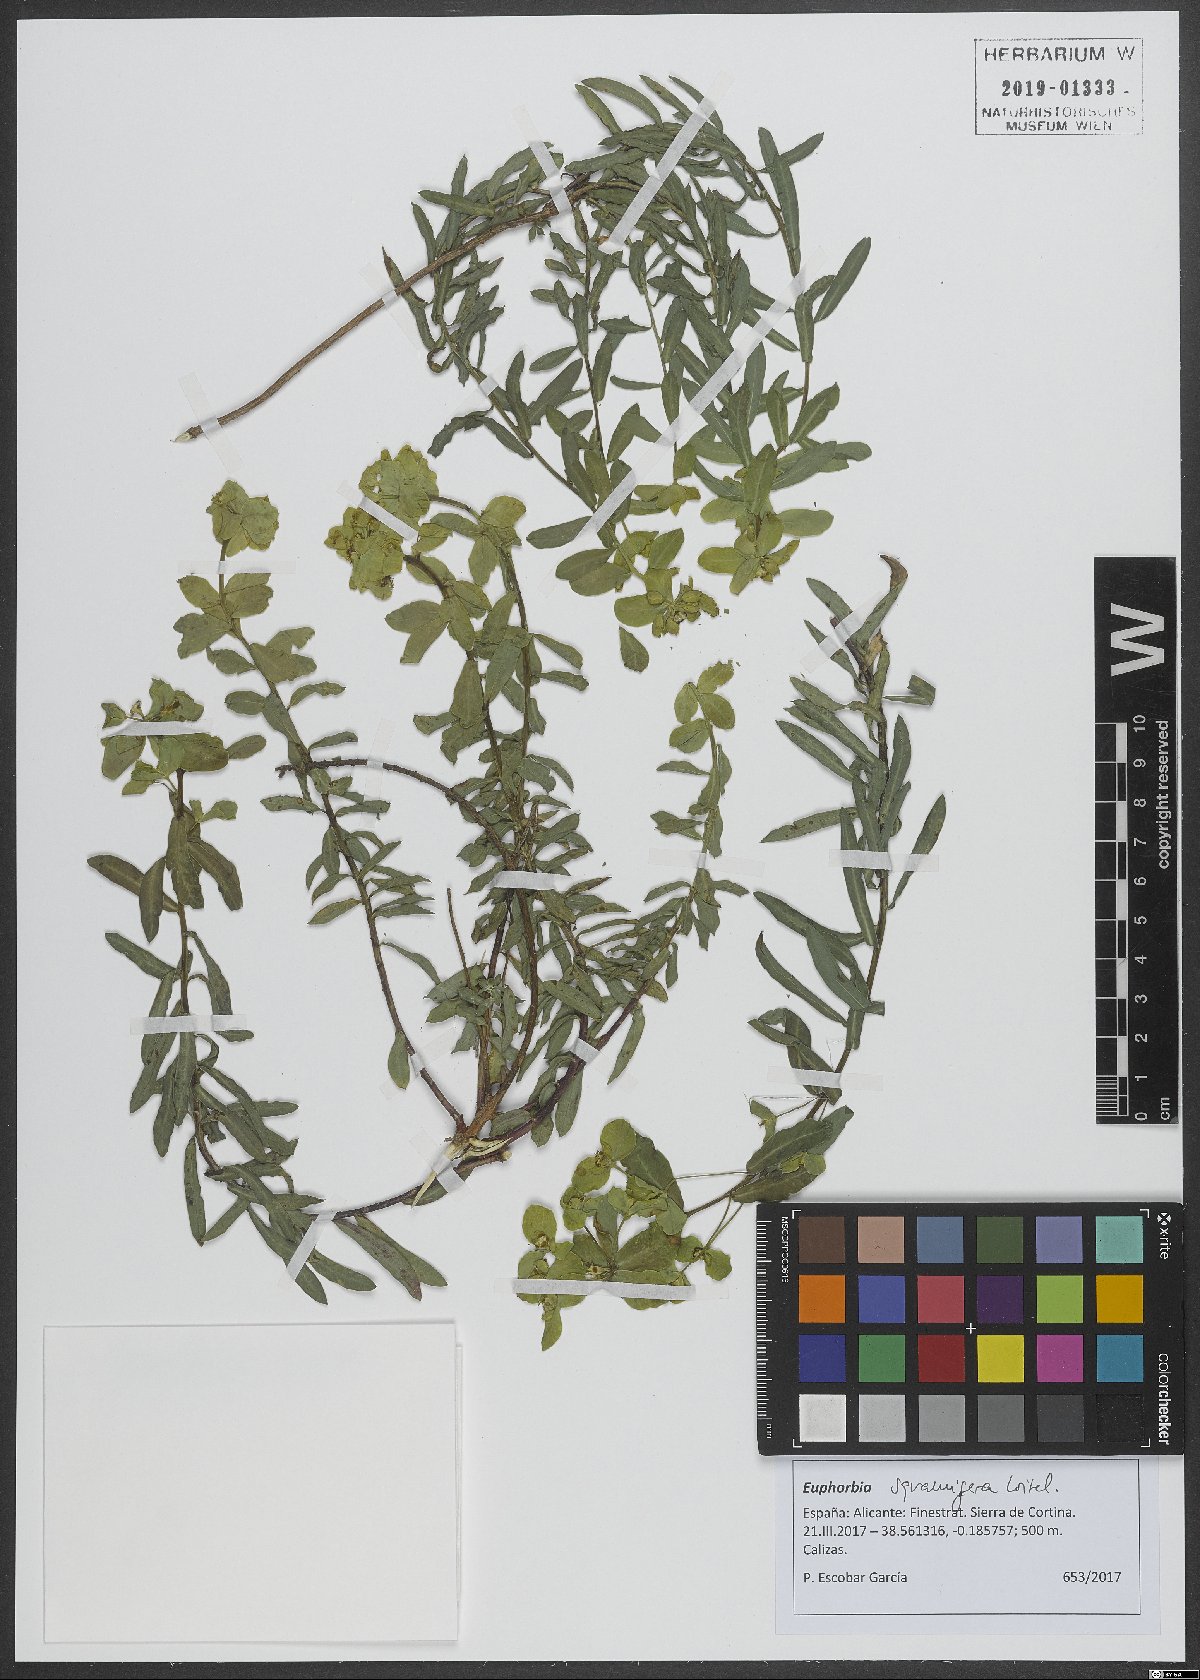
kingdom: Plantae
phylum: Tracheophyta
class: Magnoliopsida
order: Malpighiales
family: Euphorbiaceae
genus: Euphorbia
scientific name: Euphorbia squamigera
